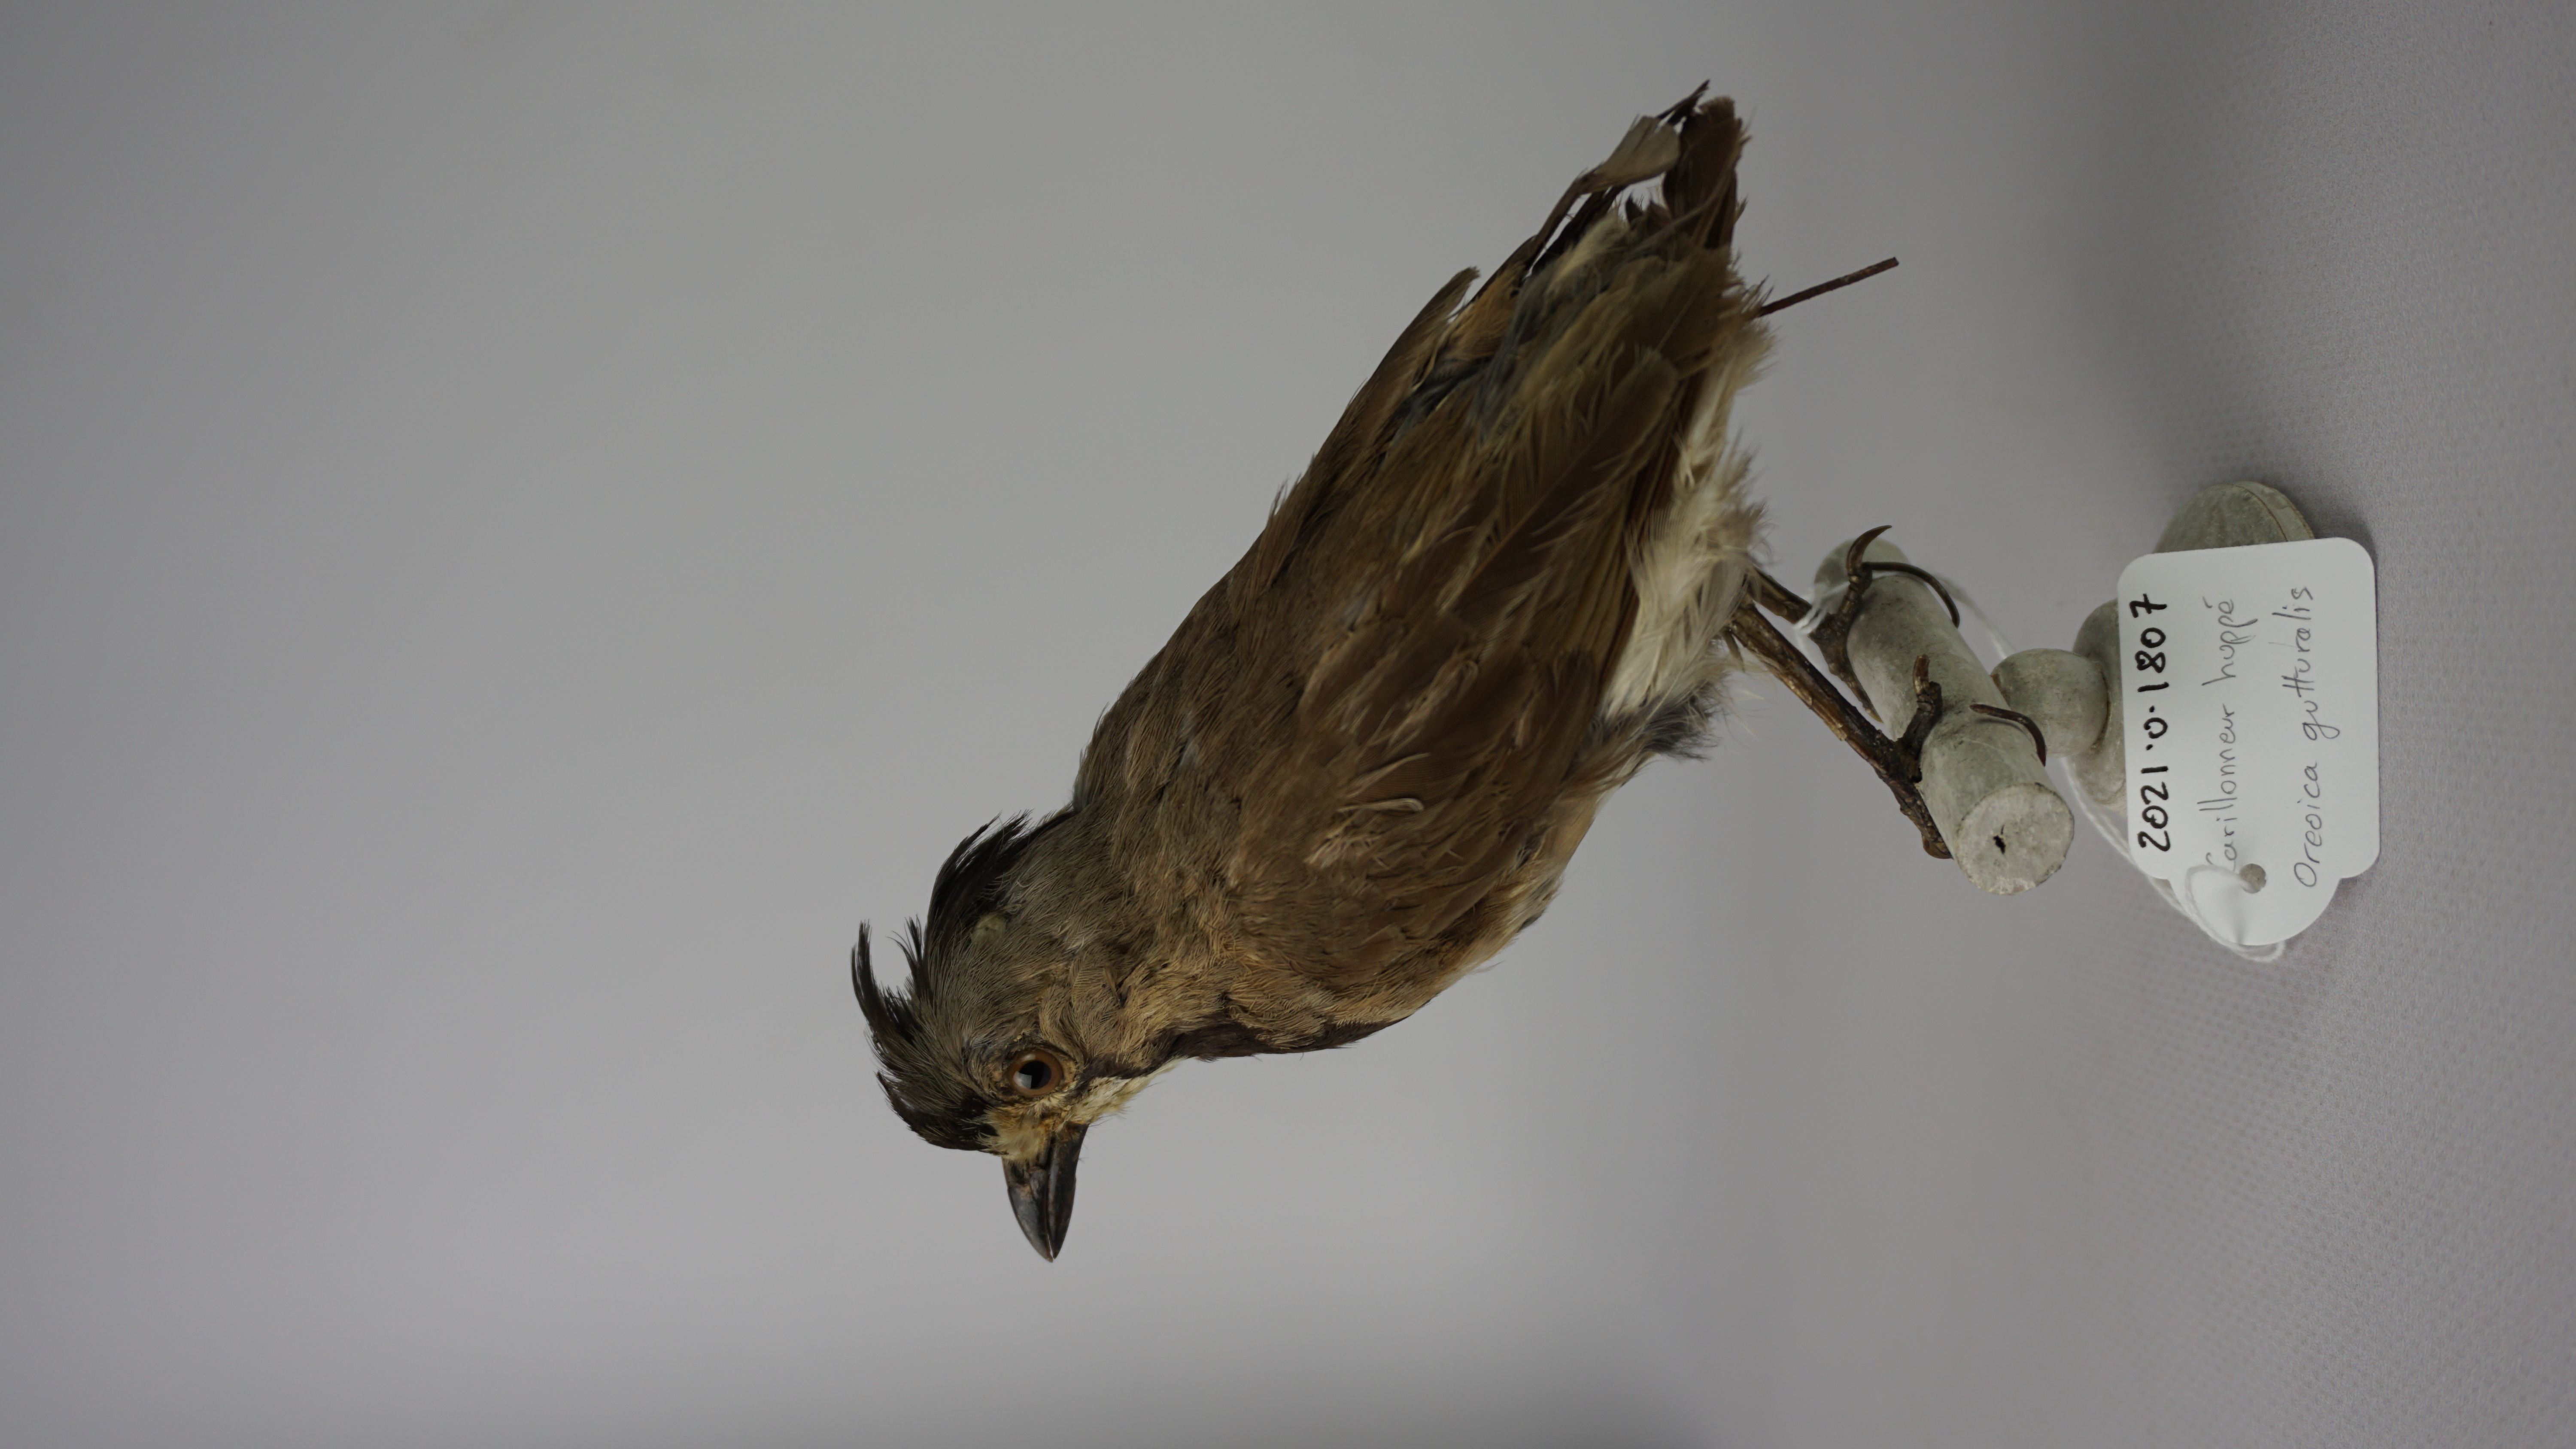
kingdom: Animalia
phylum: Chordata
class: Aves
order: Passeriformes
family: Oreoicidae
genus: Oreoica
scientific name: Oreoica gutturalis
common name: Crested bellbird
